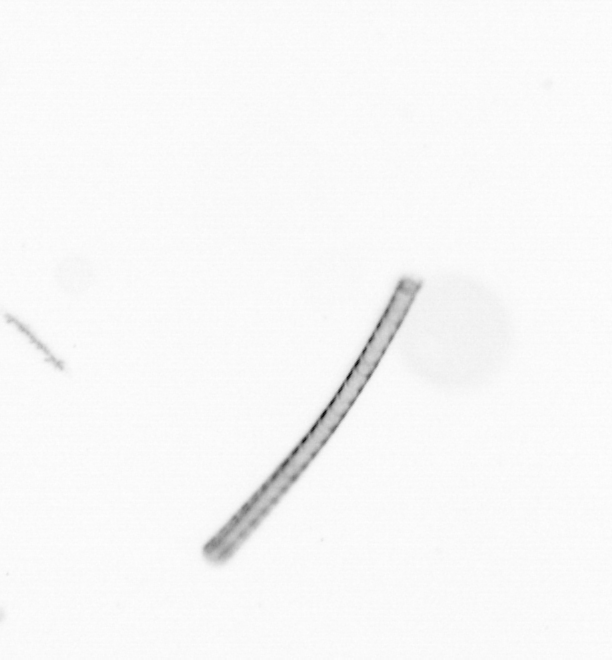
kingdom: Chromista
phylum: Ochrophyta
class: Bacillariophyceae
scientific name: Bacillariophyceae
